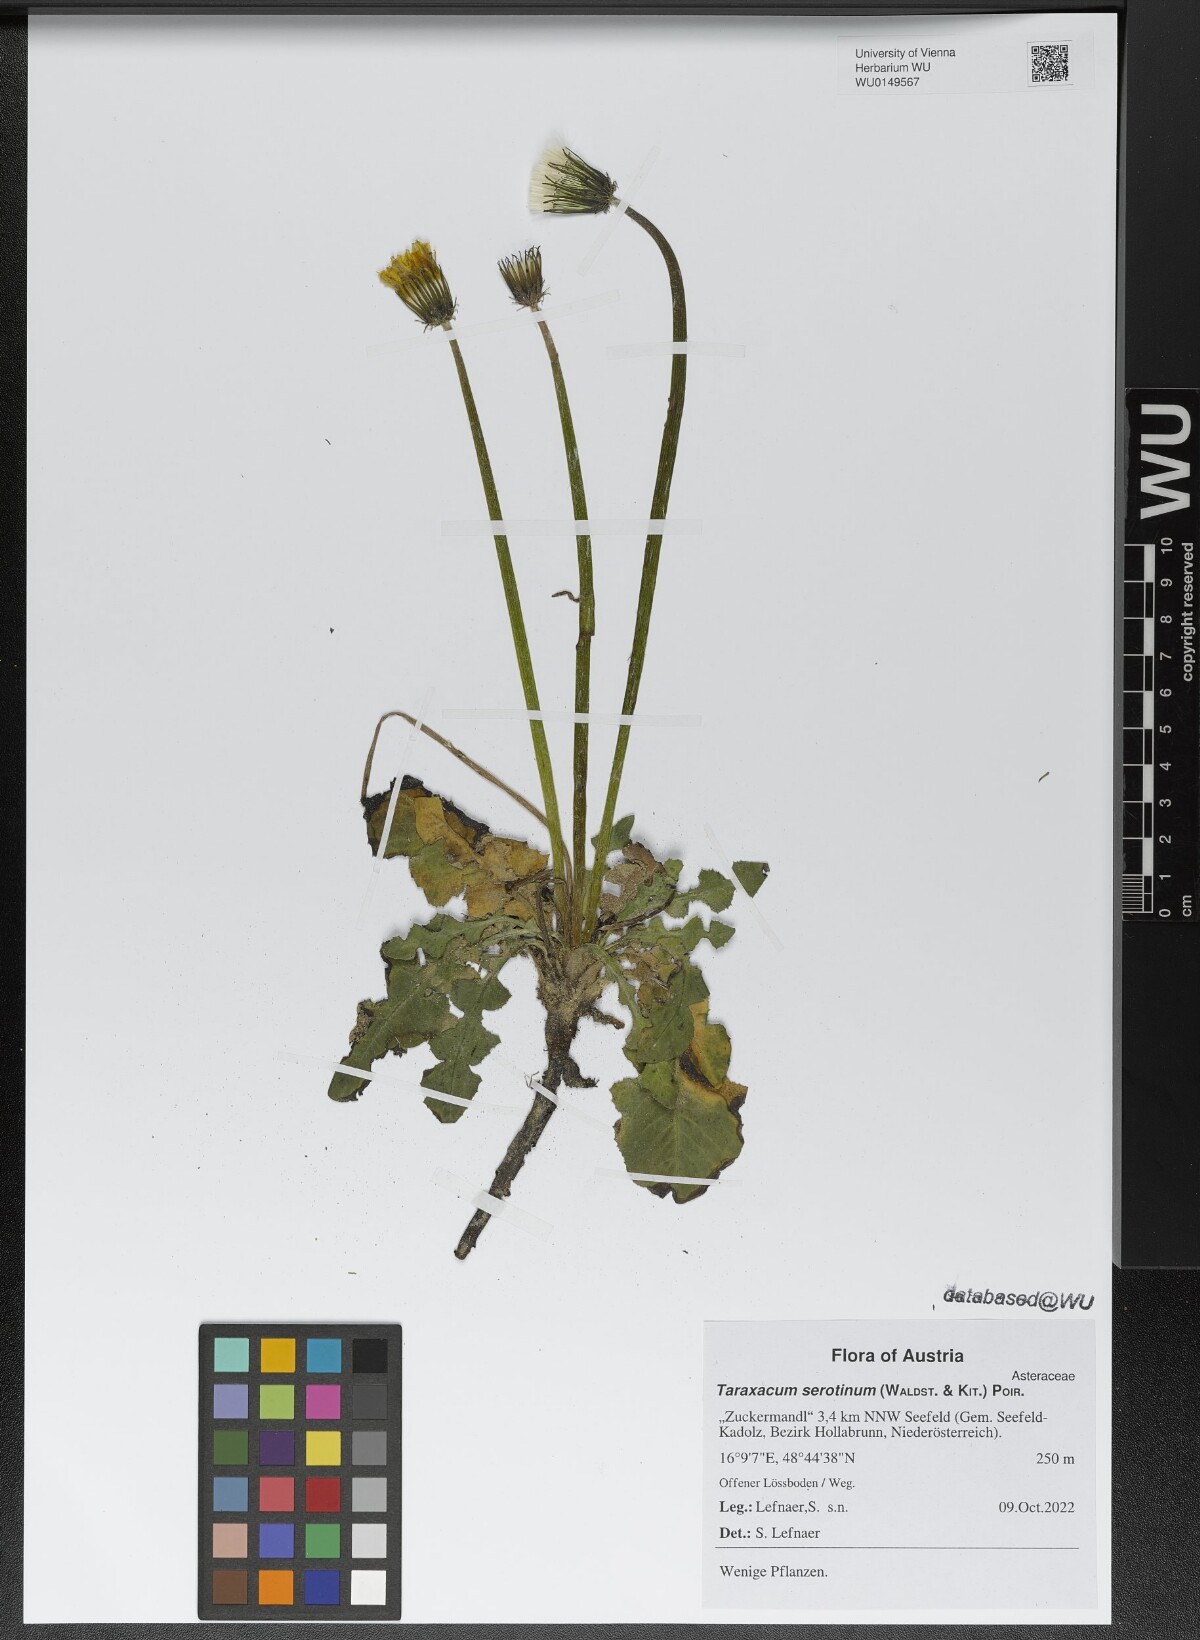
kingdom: Plantae
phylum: Tracheophyta
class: Magnoliopsida
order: Asterales
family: Asteraceae
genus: Taraxacum
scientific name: Taraxacum serotinum
